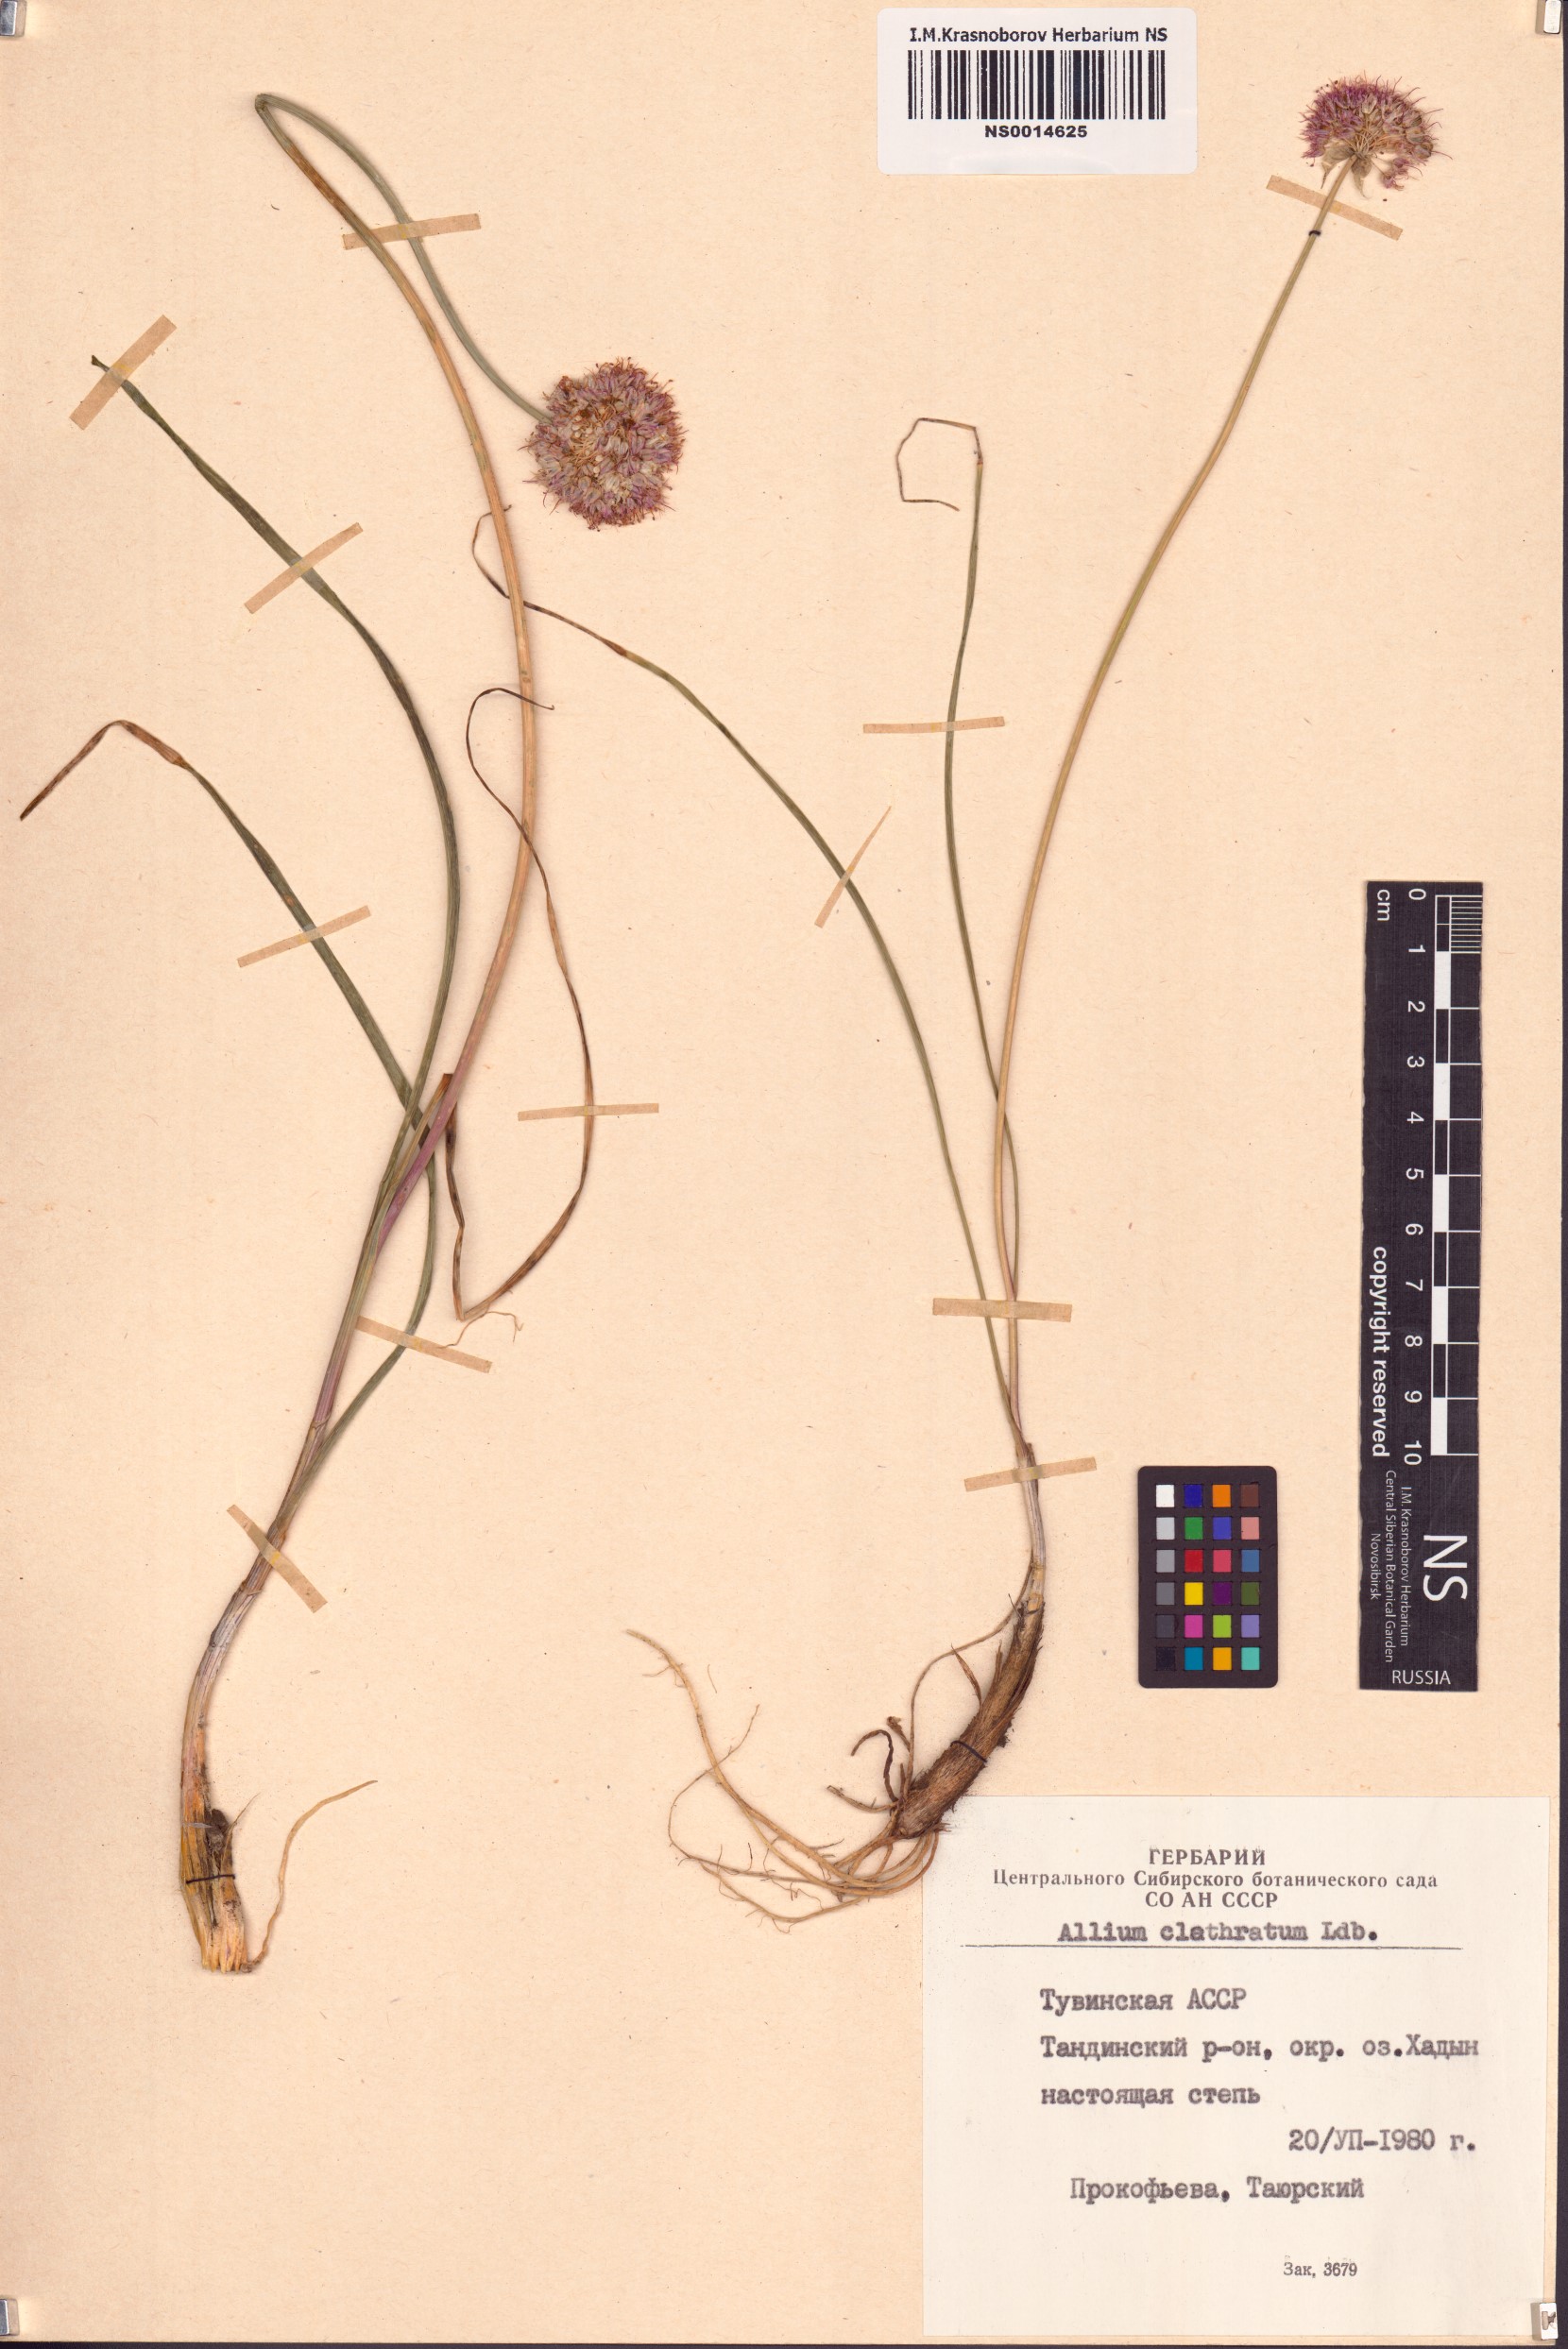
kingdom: Plantae
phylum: Tracheophyta
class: Liliopsida
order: Asparagales
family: Amaryllidaceae
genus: Allium
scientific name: Allium clathratum
